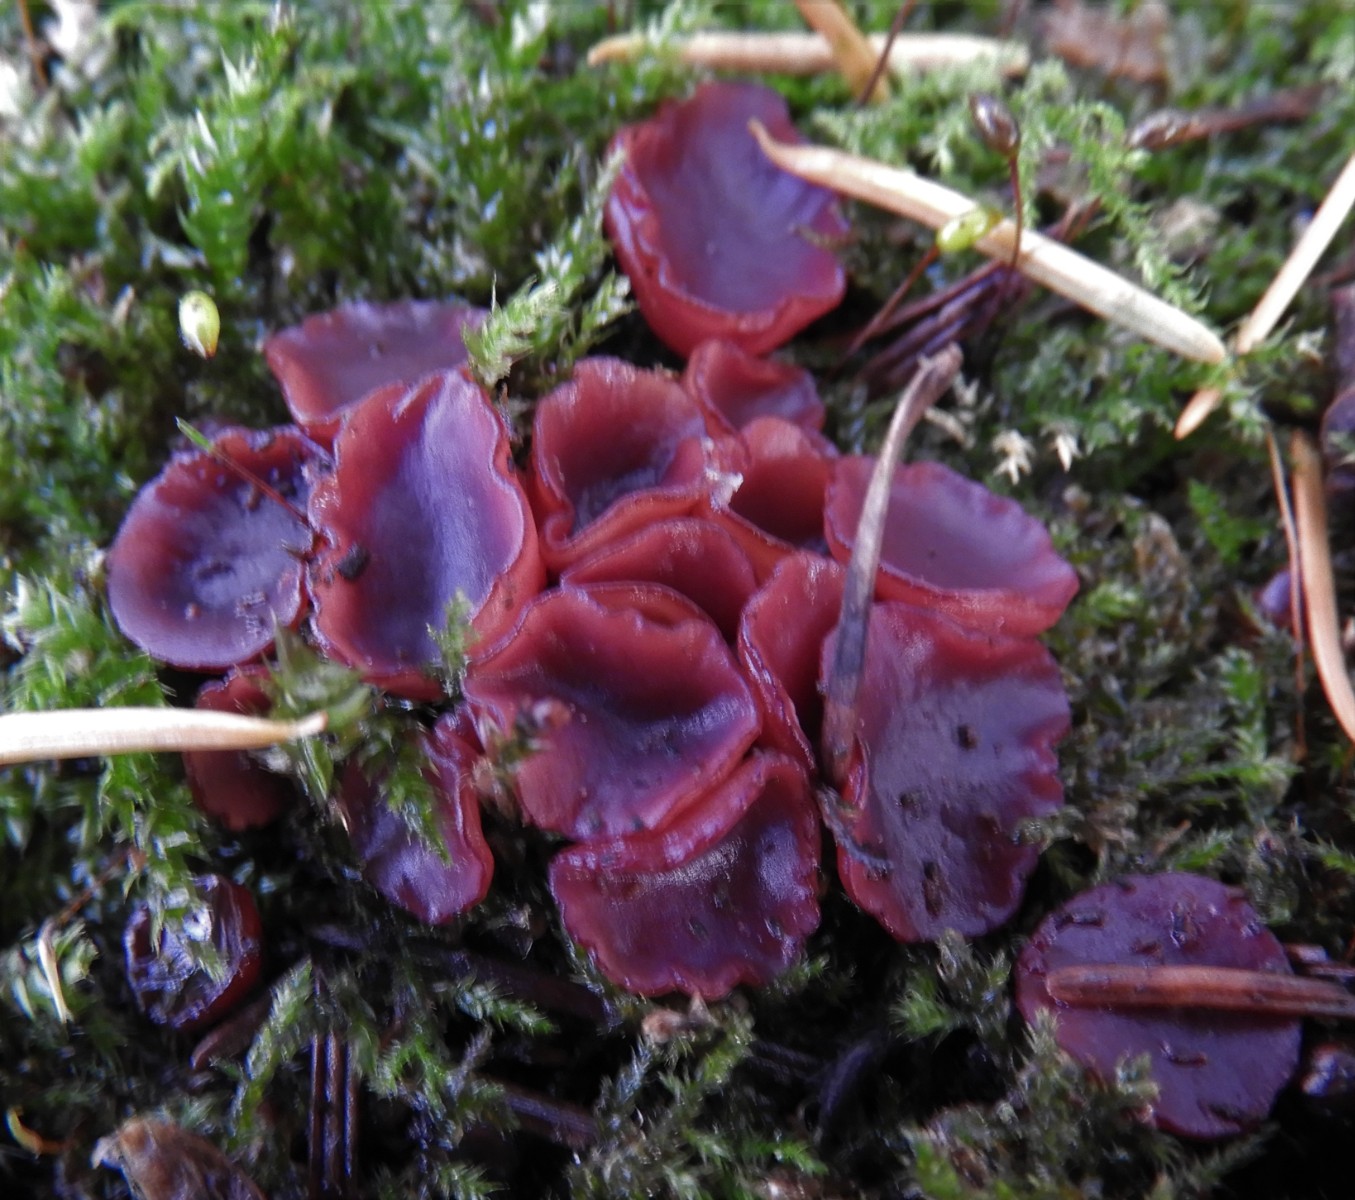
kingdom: Fungi
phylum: Ascomycota
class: Leotiomycetes
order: Helotiales
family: Gelatinodiscaceae
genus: Ascocoryne
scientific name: Ascocoryne cylichnium
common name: stor sejskive
